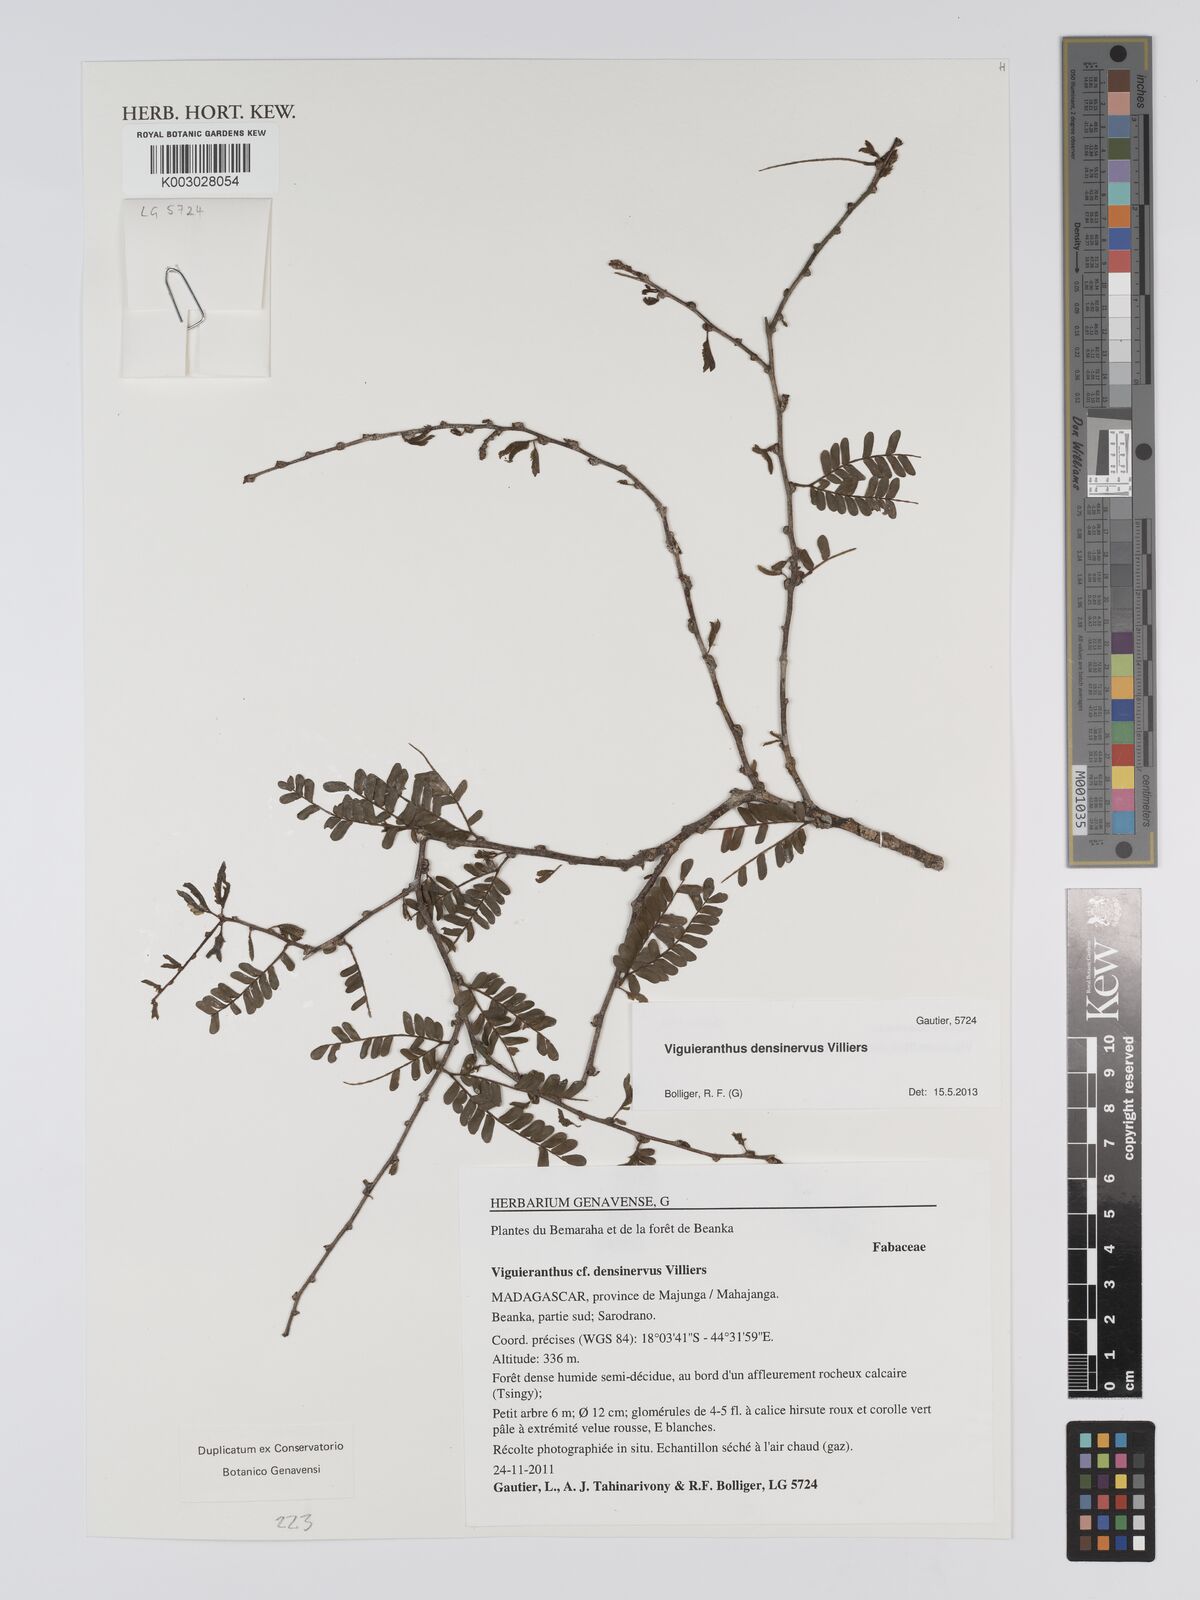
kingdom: Plantae
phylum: Tracheophyta
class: Magnoliopsida
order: Fabales
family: Fabaceae
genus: Viguieranthus
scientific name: Viguieranthus densinervus
